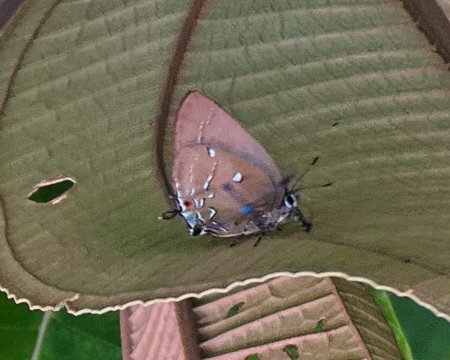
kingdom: Animalia
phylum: Arthropoda
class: Insecta
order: Lepidoptera
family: Lycaenidae
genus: Thecla
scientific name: Thecla myrtusa
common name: Myrtusa Hairstreak
